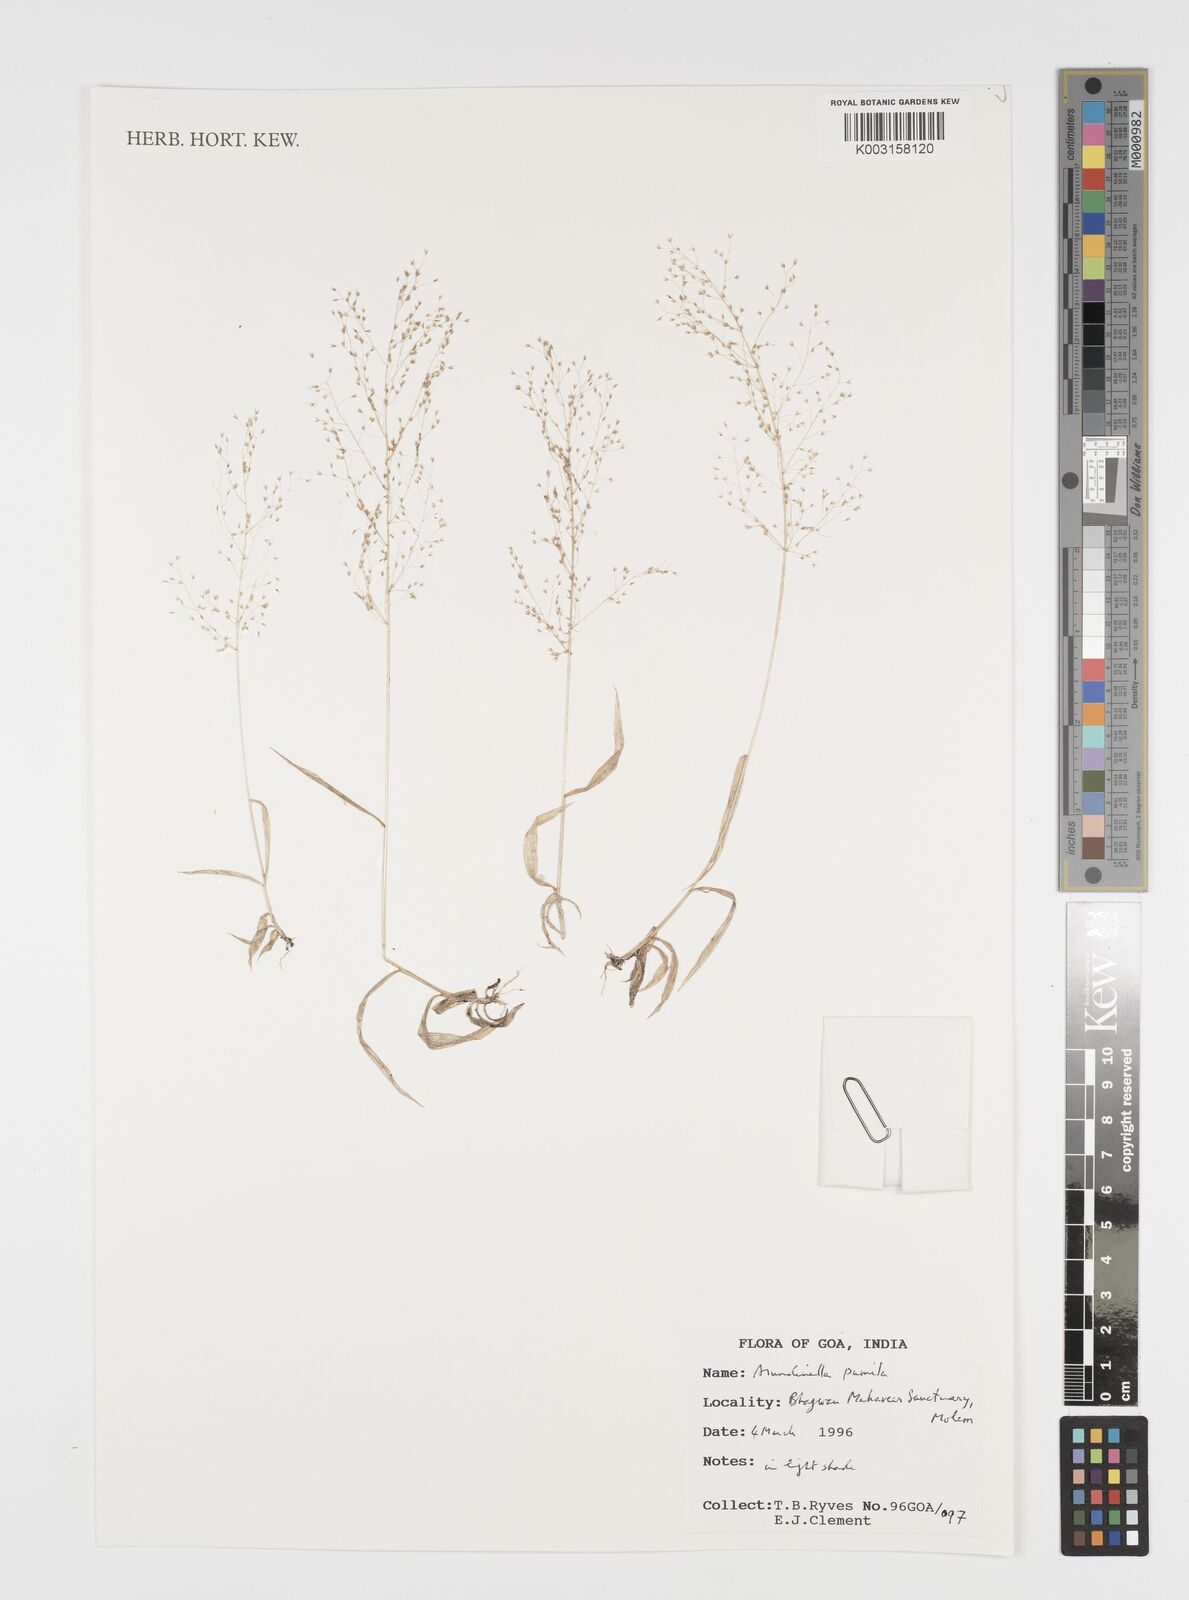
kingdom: Plantae
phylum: Tracheophyta
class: Liliopsida
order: Poales
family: Poaceae
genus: Arundinella
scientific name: Arundinella pumila
